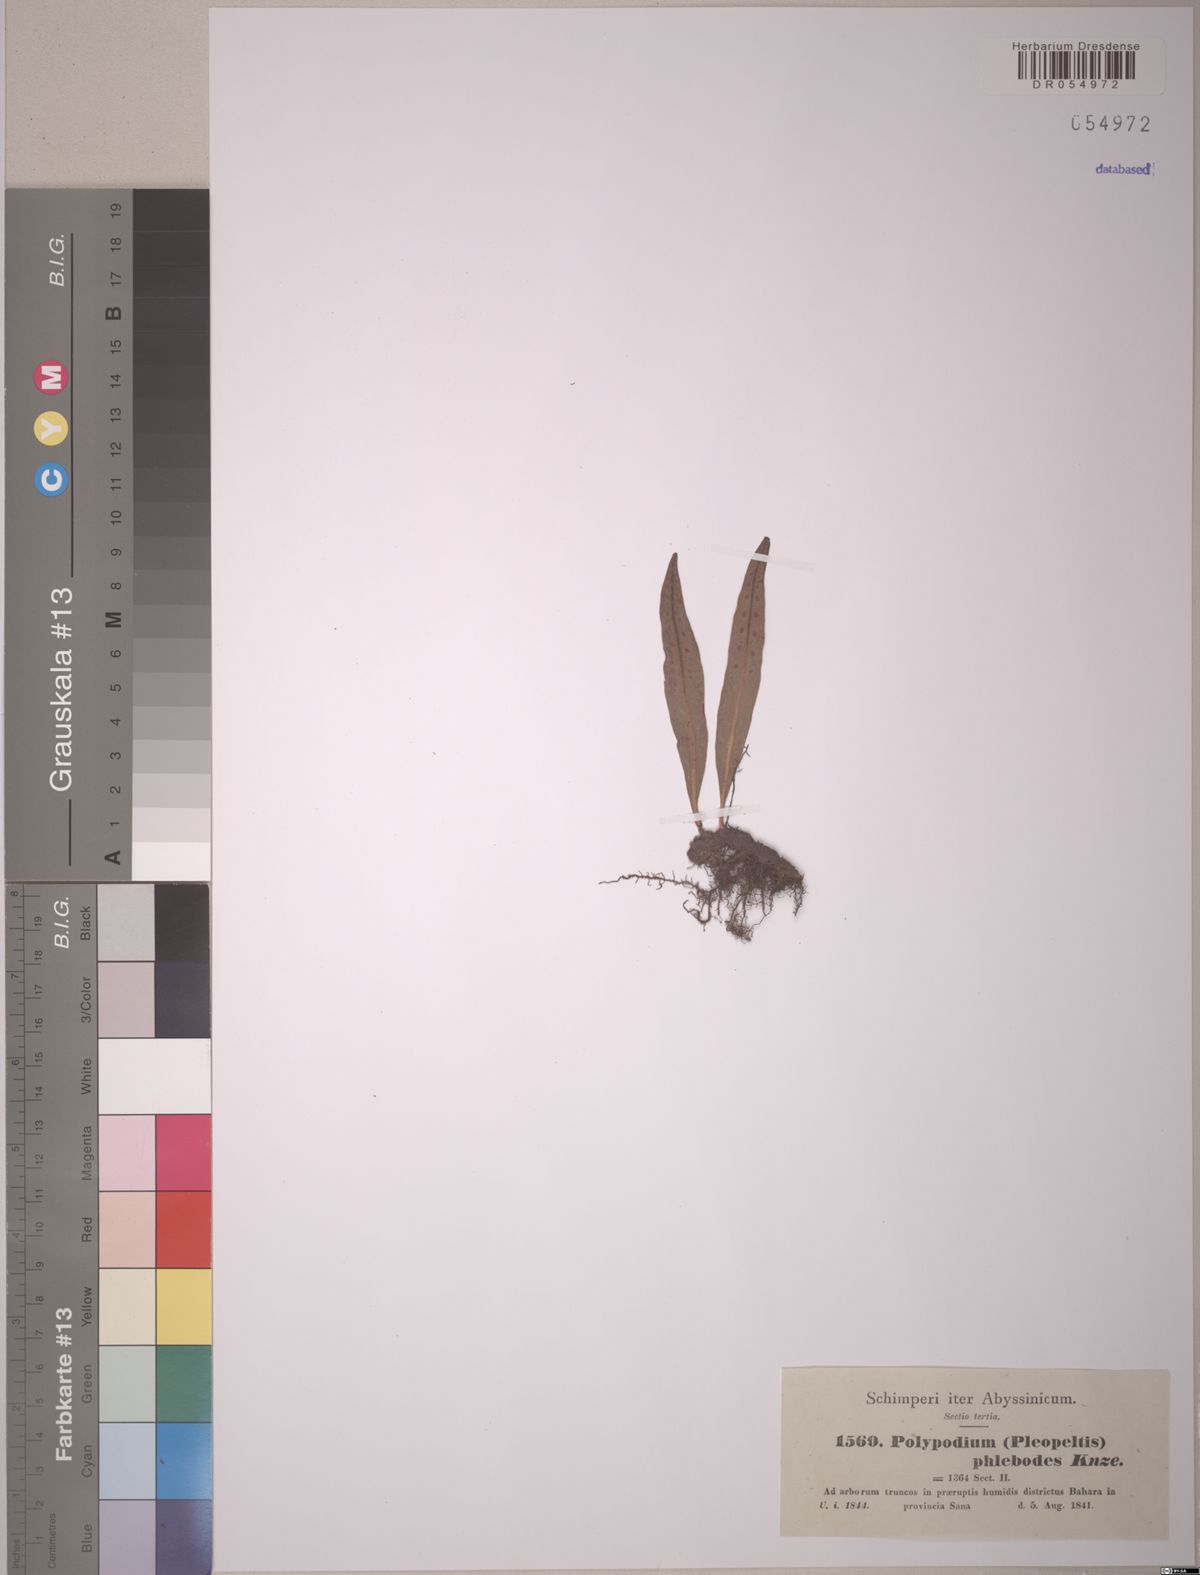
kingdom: Plantae
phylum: Tracheophyta
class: Polypodiopsida
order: Polypodiales
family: Polypodiaceae
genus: Lepisorus
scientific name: Lepisorus excavatus
